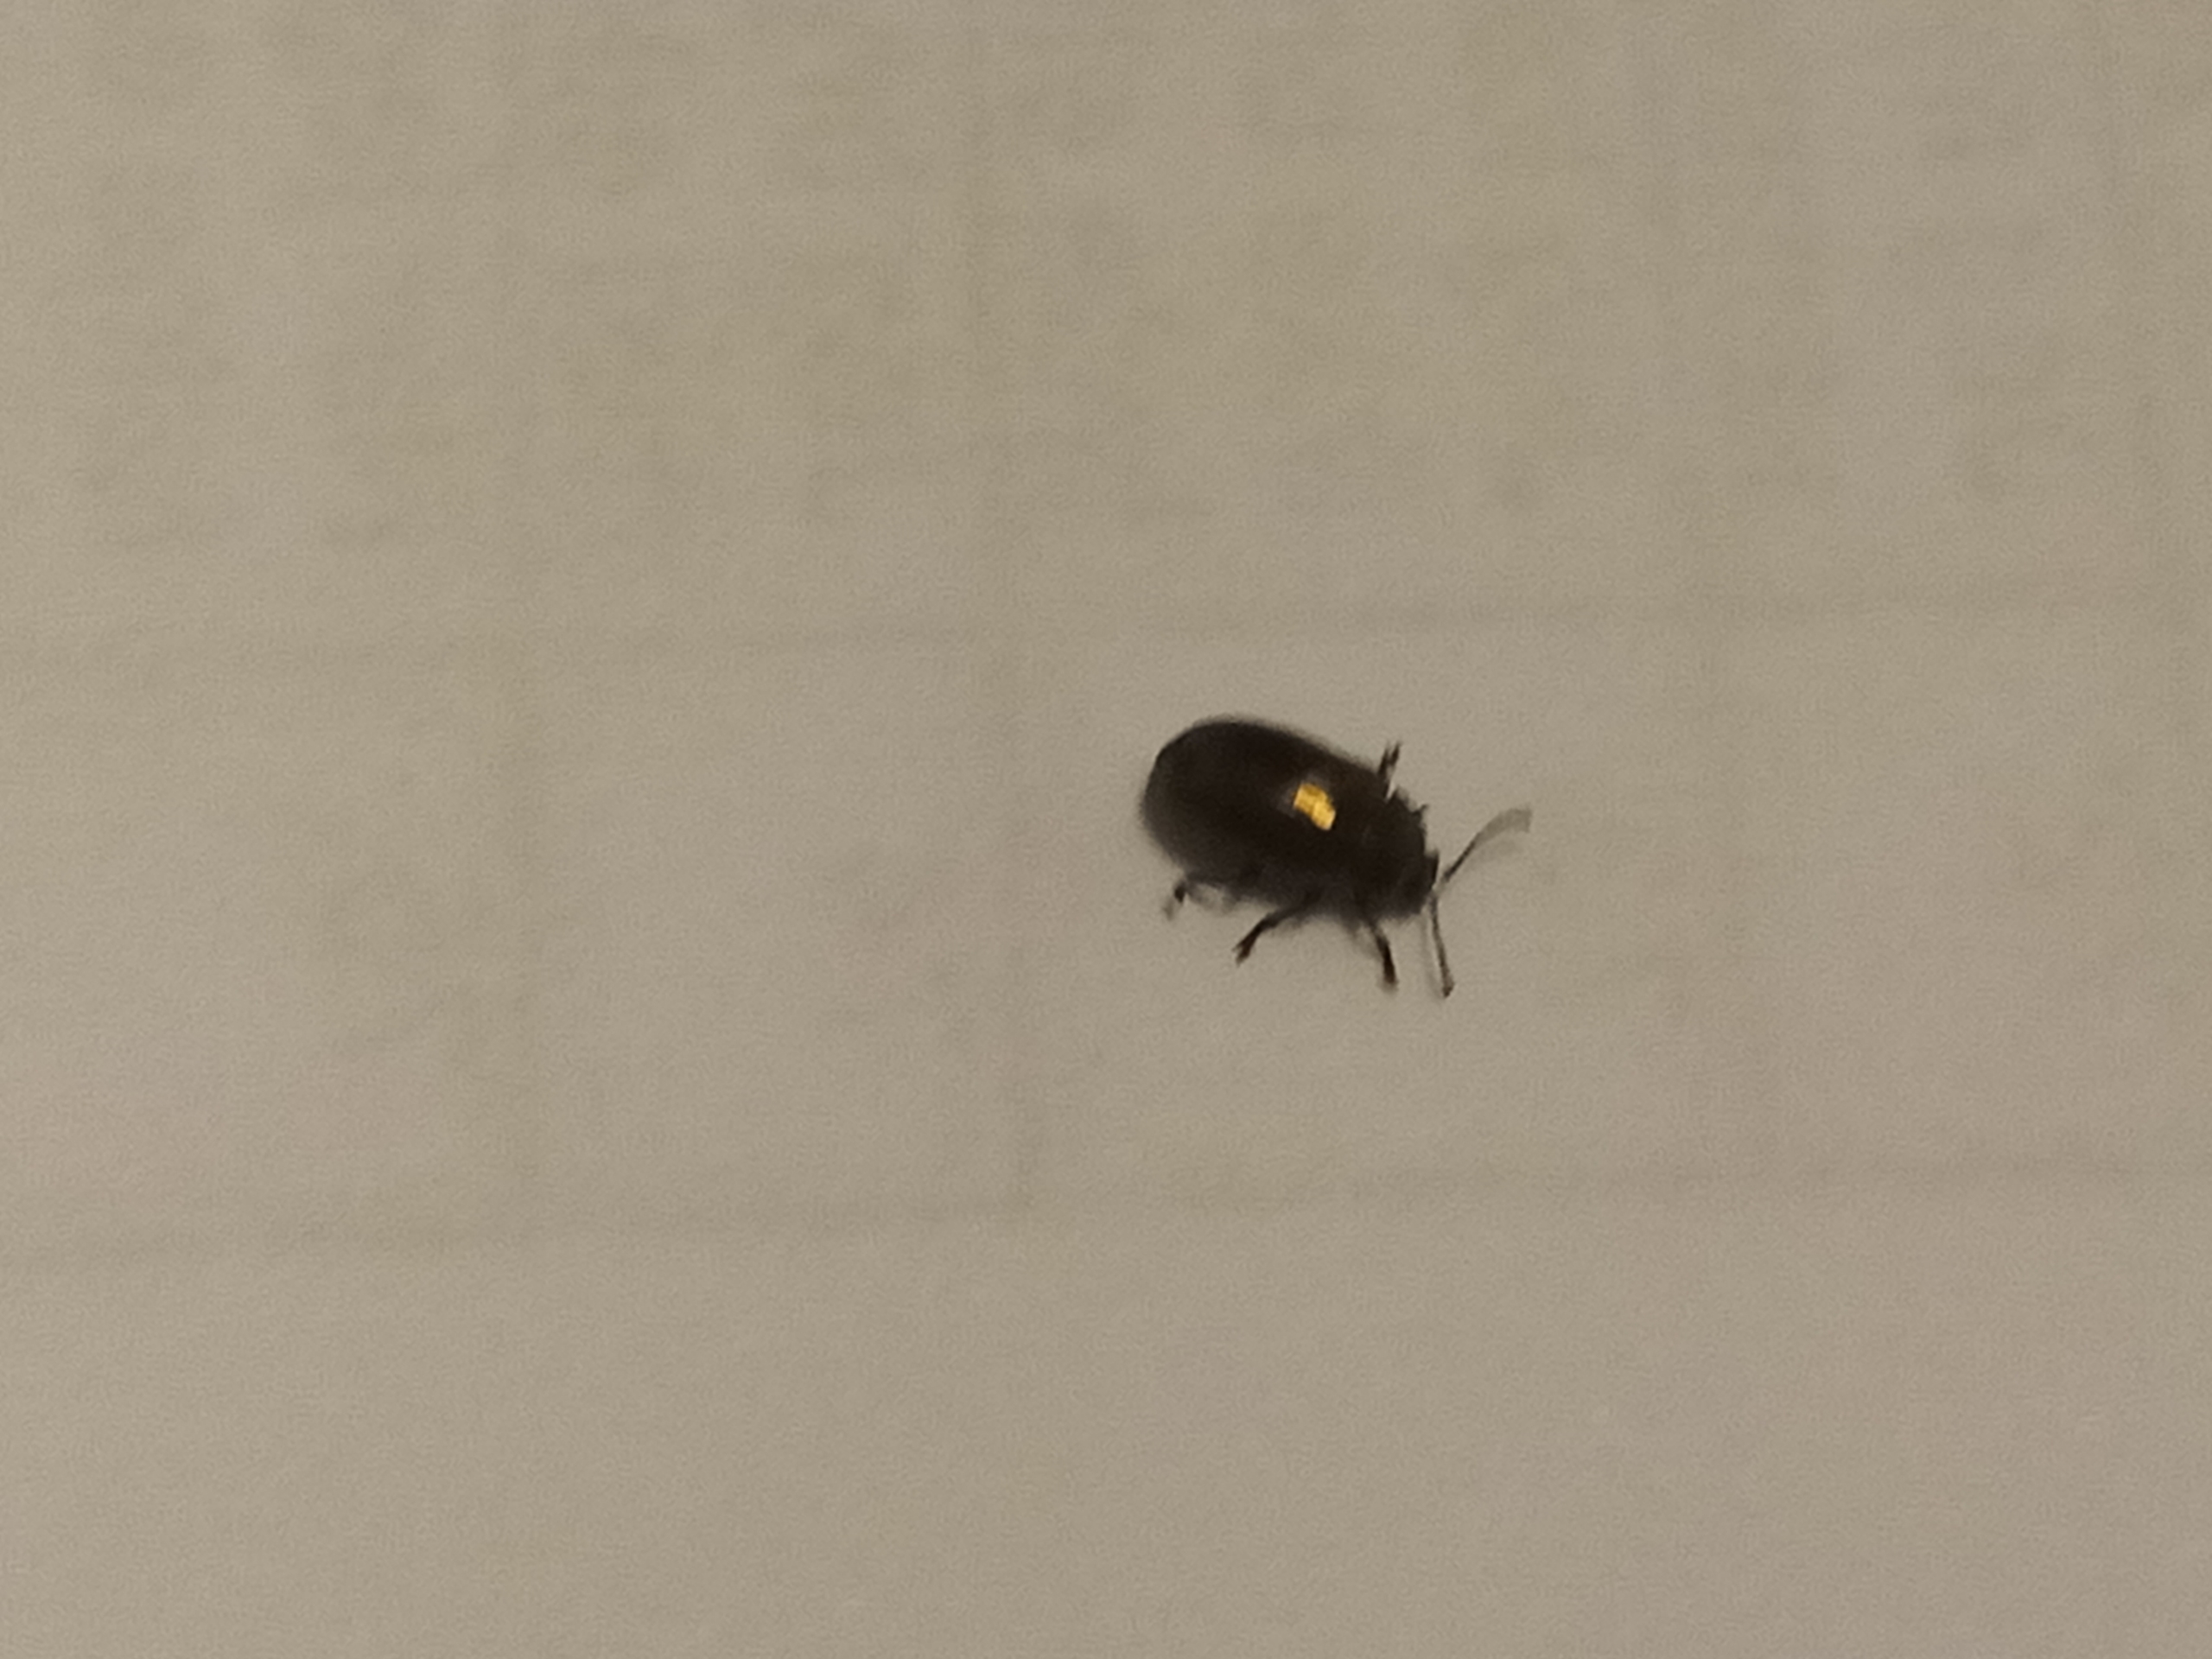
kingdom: Animalia
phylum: Arthropoda
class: Insecta
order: Coleoptera
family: Chrysomelidae
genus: Phratora
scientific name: Phratora
